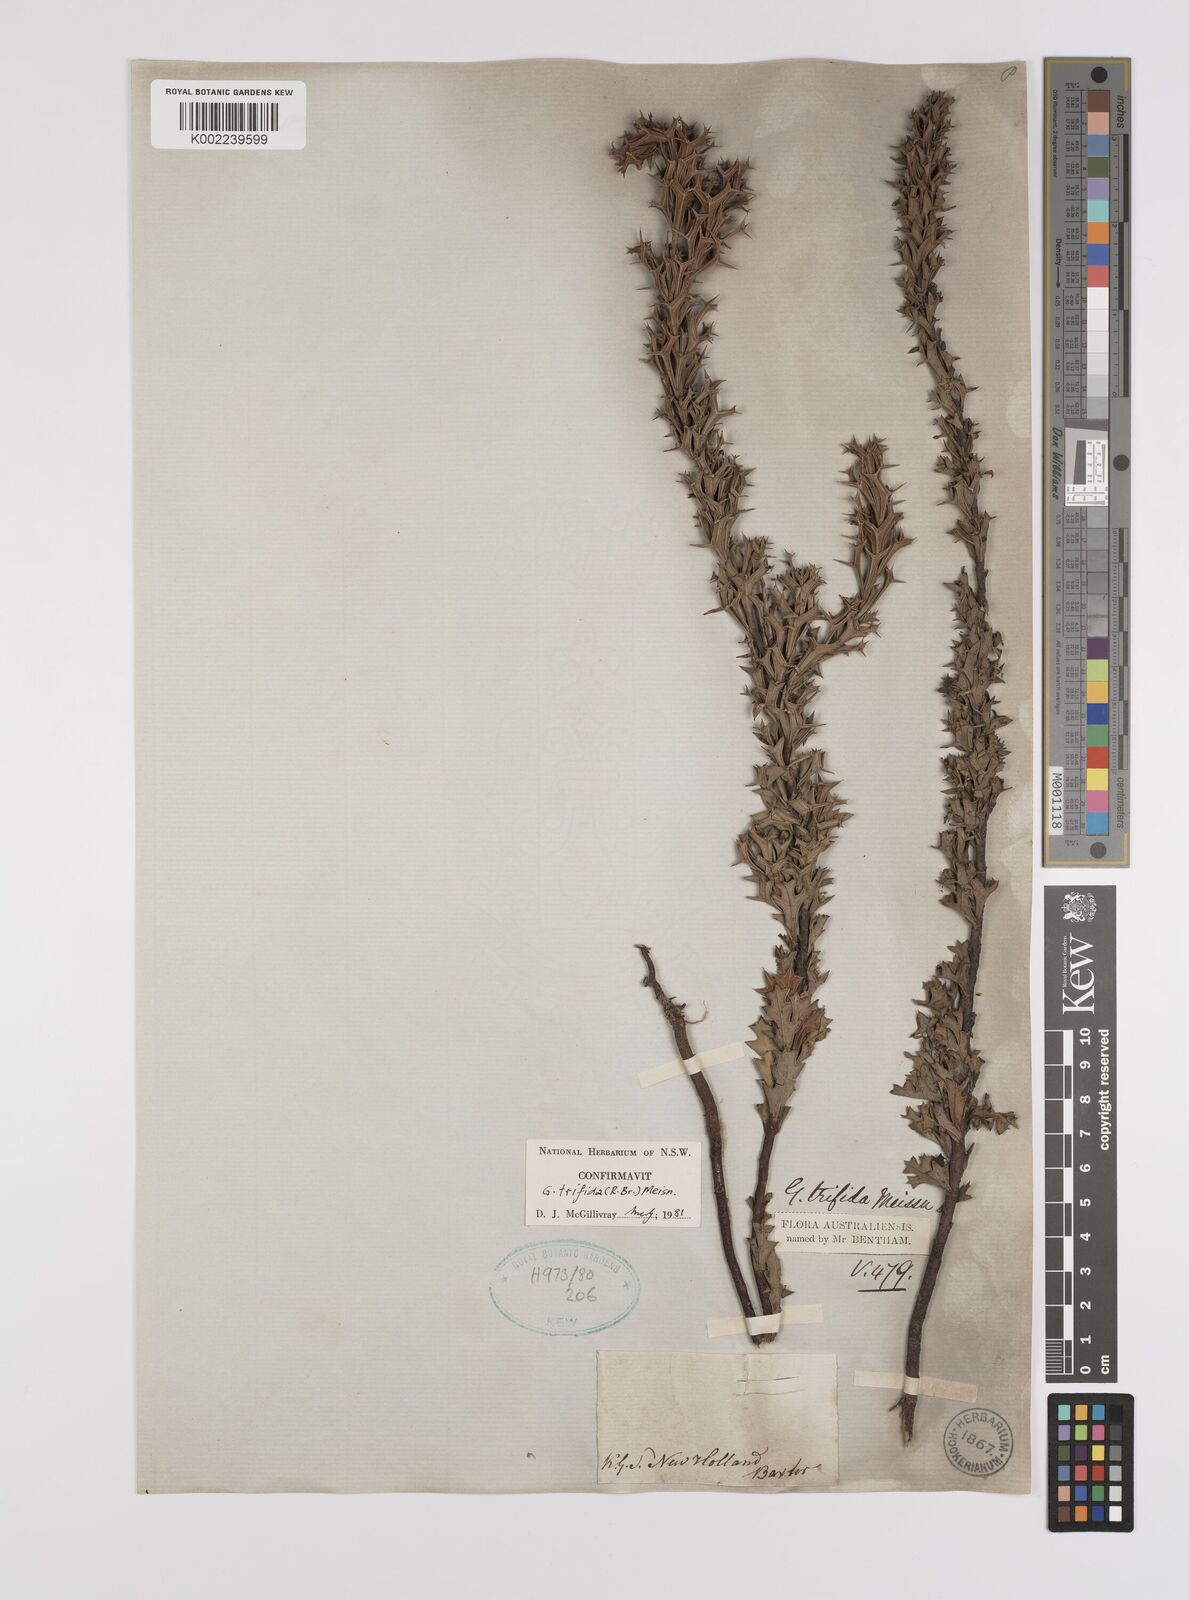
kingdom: Plantae
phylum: Tracheophyta
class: Magnoliopsida
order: Proteales
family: Proteaceae
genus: Grevillea
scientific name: Grevillea trifida
